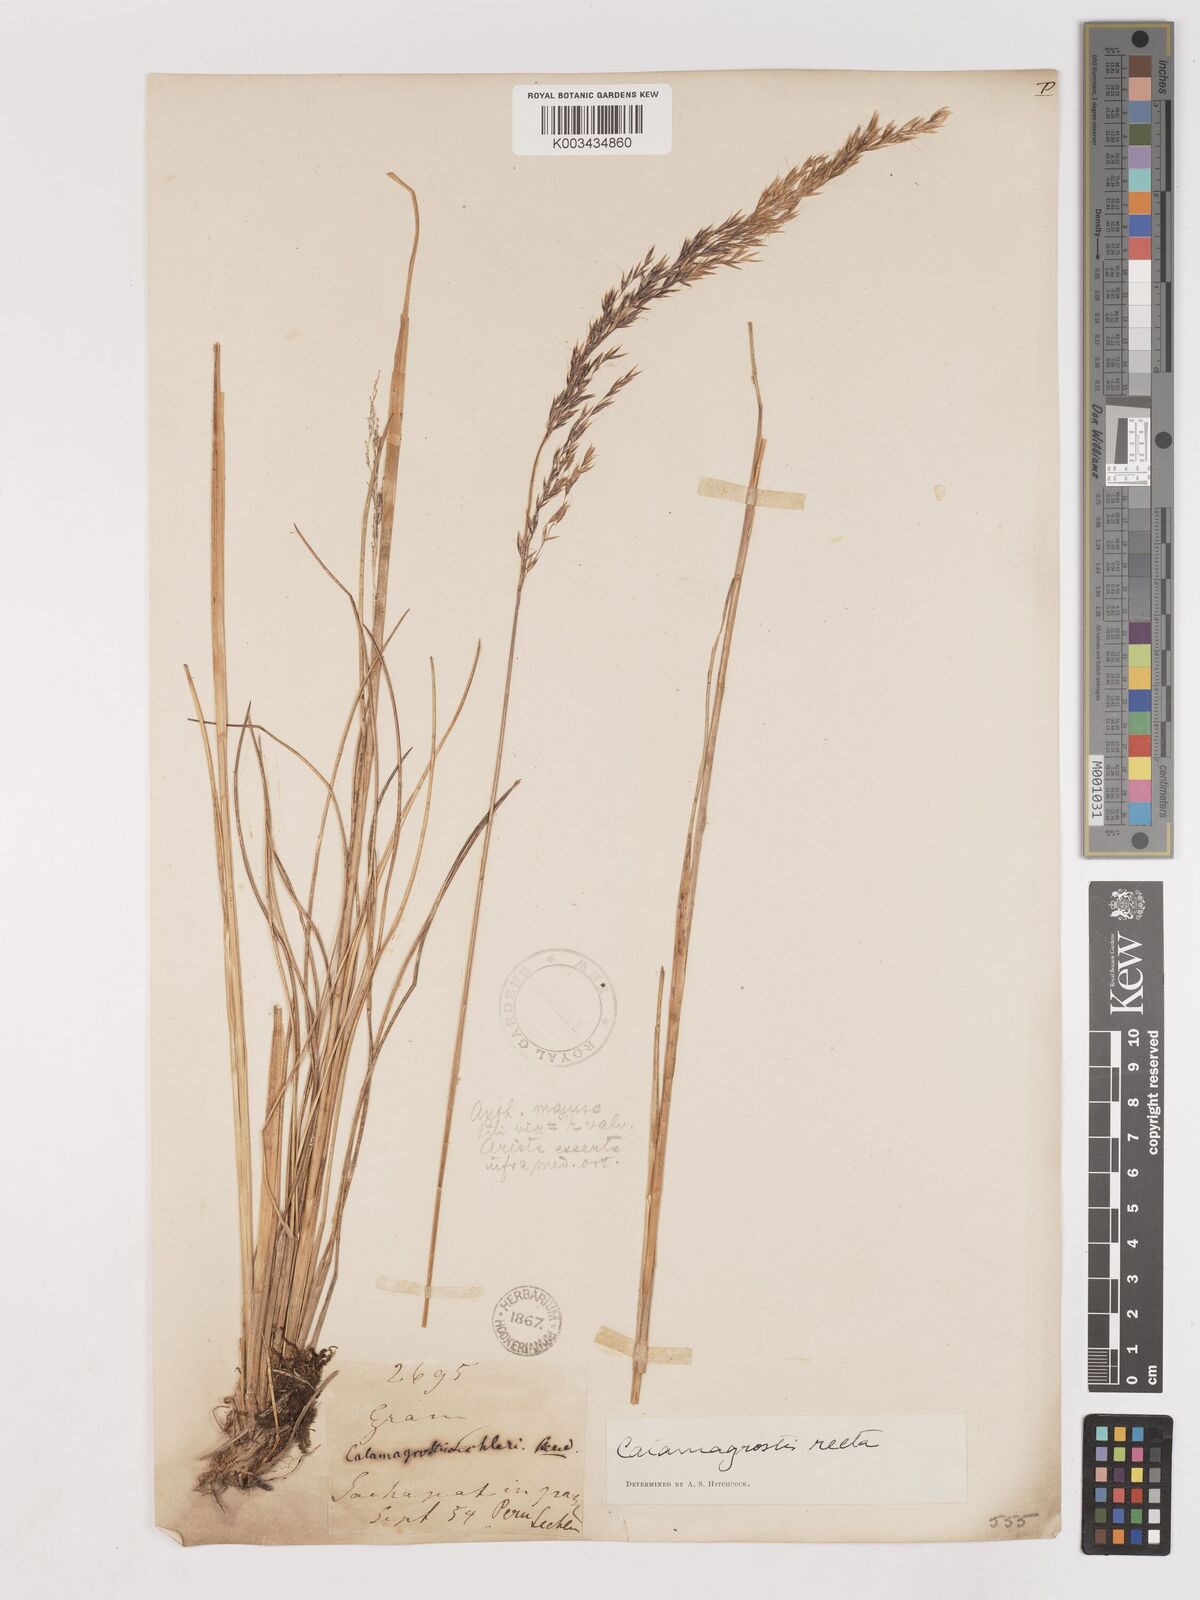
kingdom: Plantae
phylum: Tracheophyta
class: Liliopsida
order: Poales
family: Poaceae
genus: Cinnagrostis
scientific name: Cinnagrostis recta
